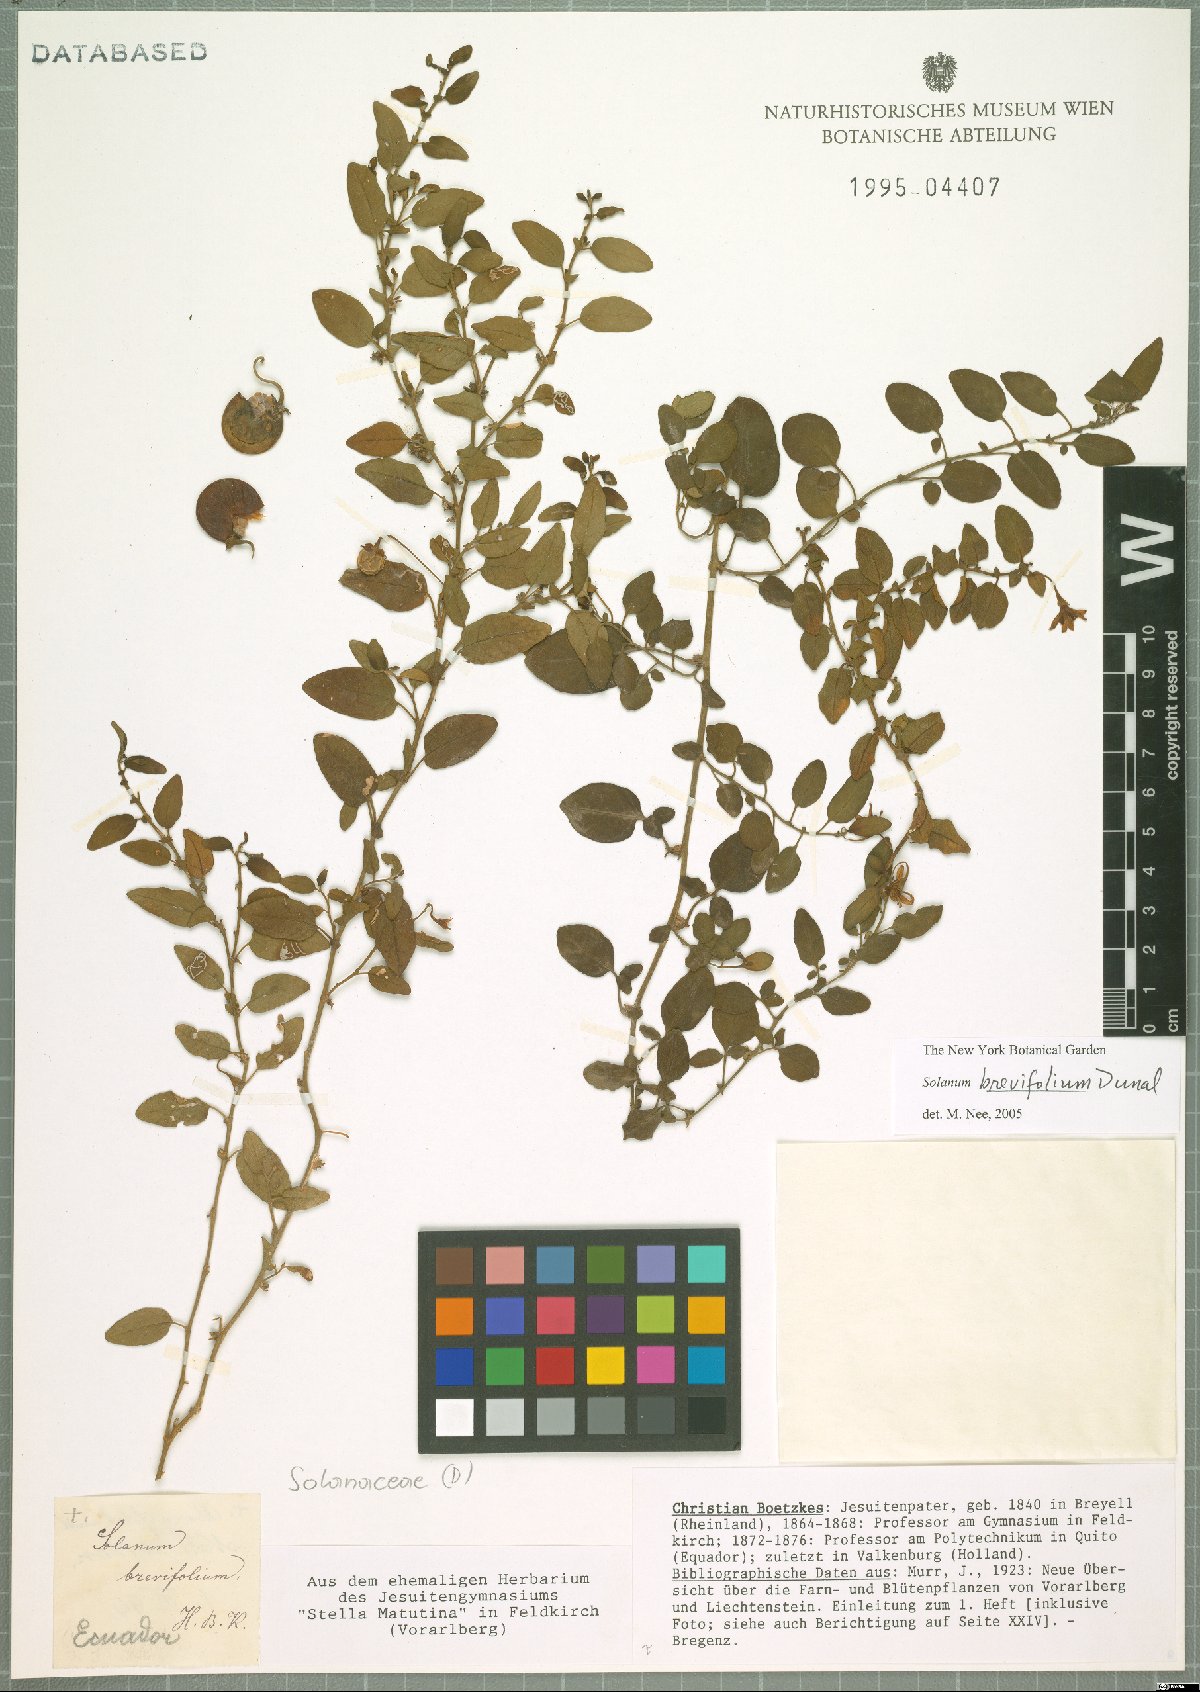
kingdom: Plantae
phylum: Tracheophyta
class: Magnoliopsida
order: Solanales
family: Solanaceae
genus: Solanum
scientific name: Solanum brevifolium
